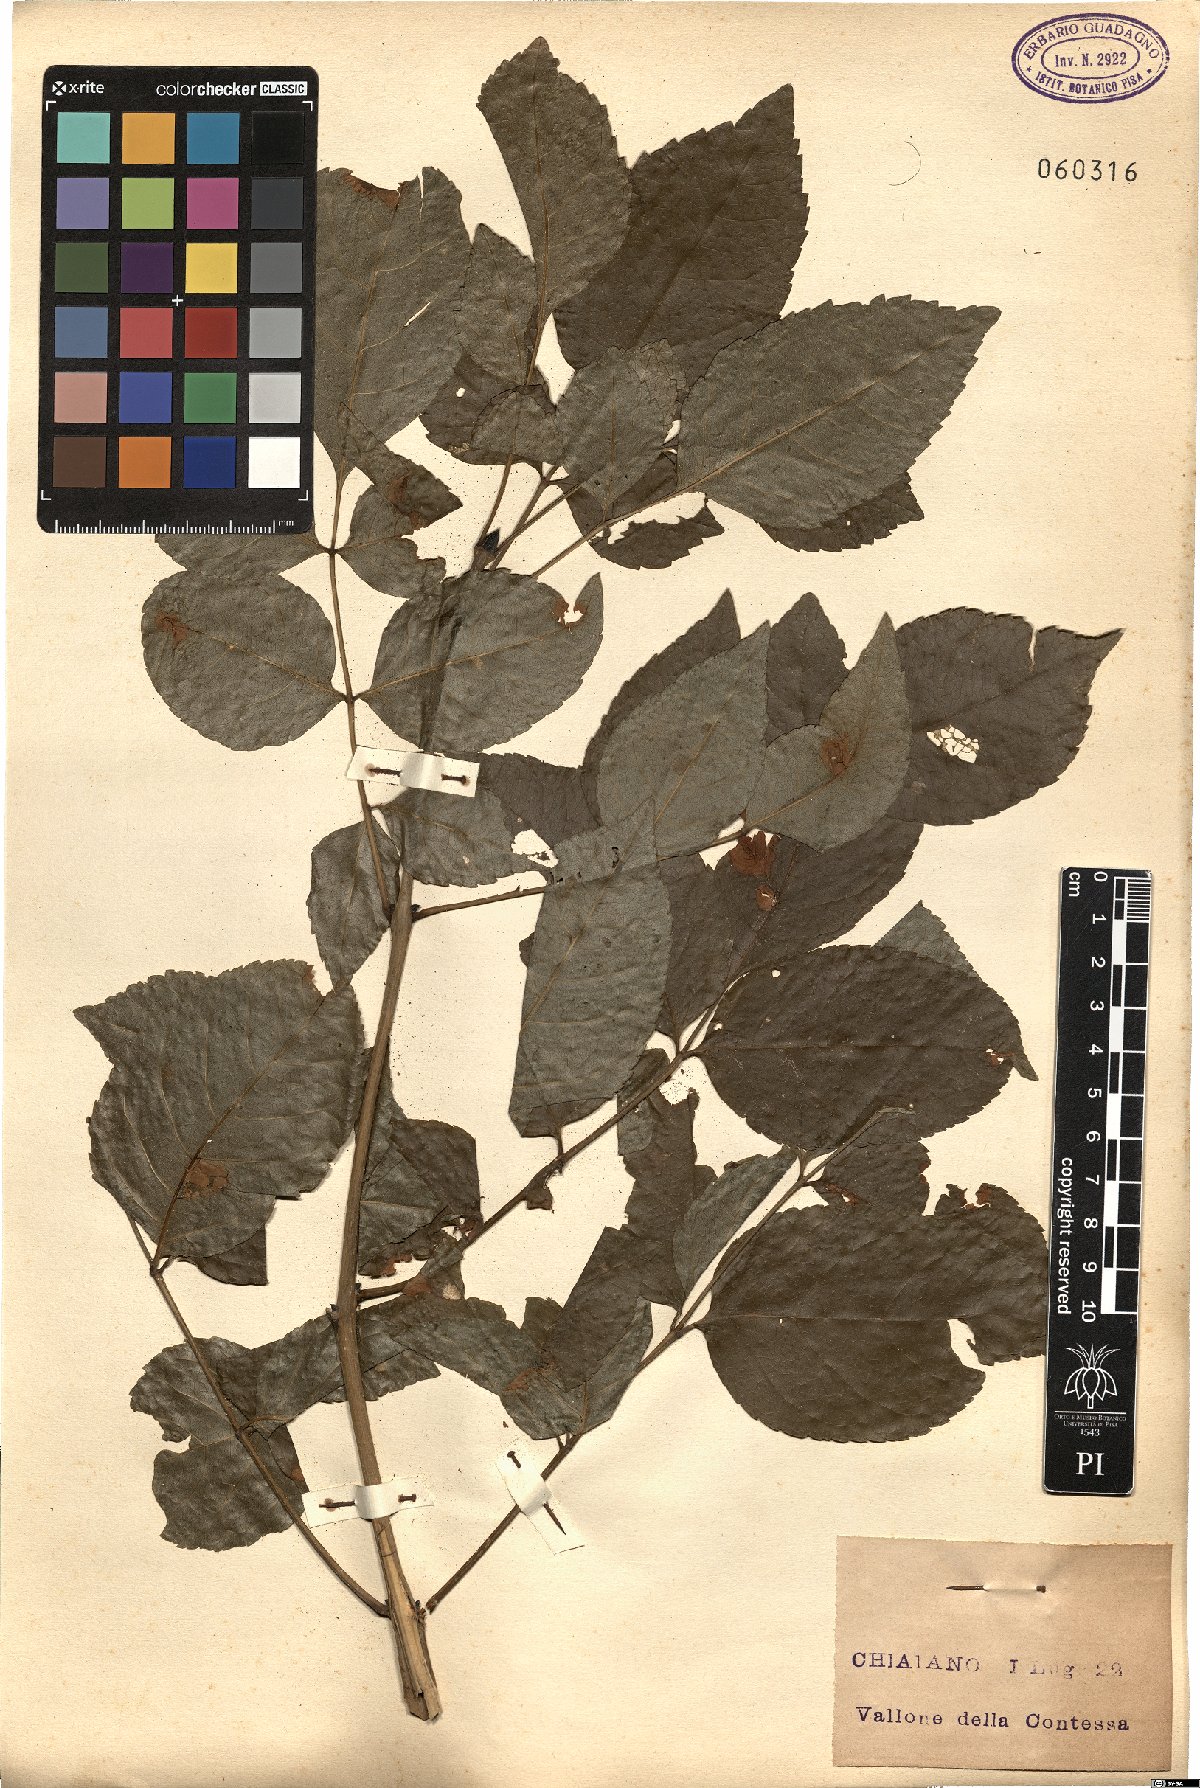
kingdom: Plantae
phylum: Tracheophyta
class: Magnoliopsida
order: Lamiales
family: Oleaceae
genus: Fraxinus
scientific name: Fraxinus ornus
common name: Manna ash
